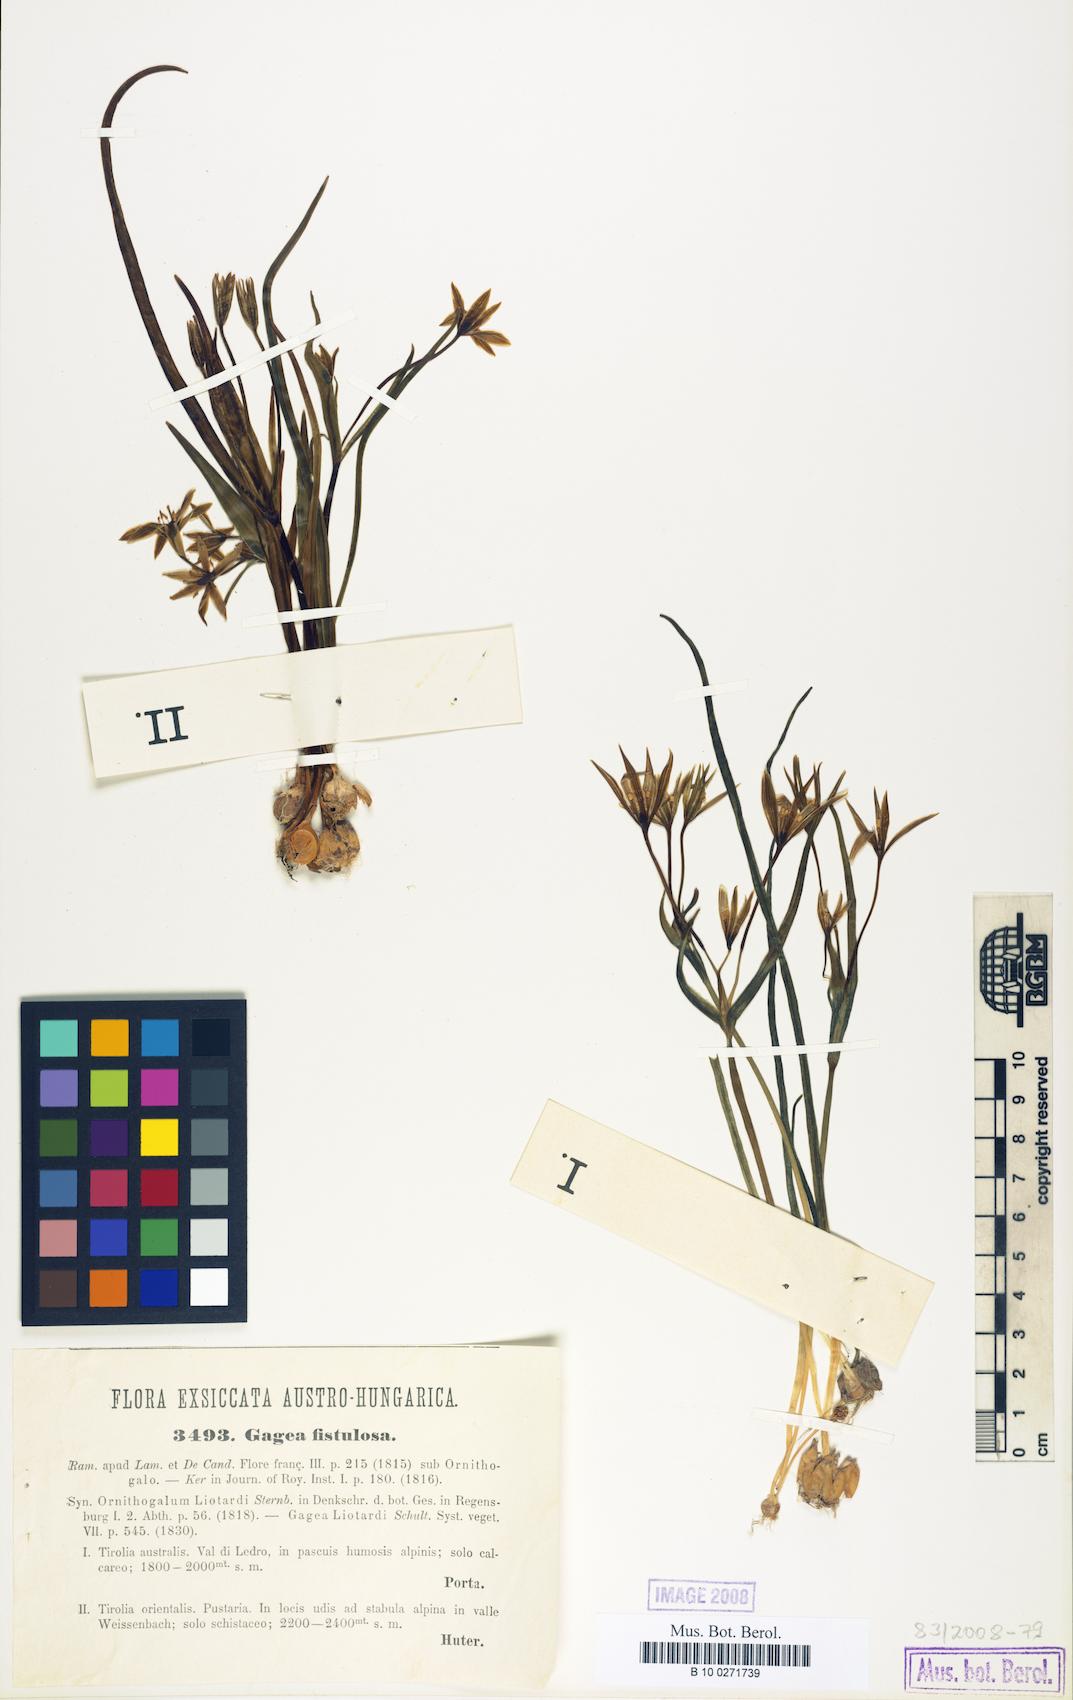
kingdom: Plantae
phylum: Tracheophyta
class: Liliopsida
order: Liliales
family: Liliaceae
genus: Gagea
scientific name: Gagea bohemica
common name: Early star-of-bethlehem
